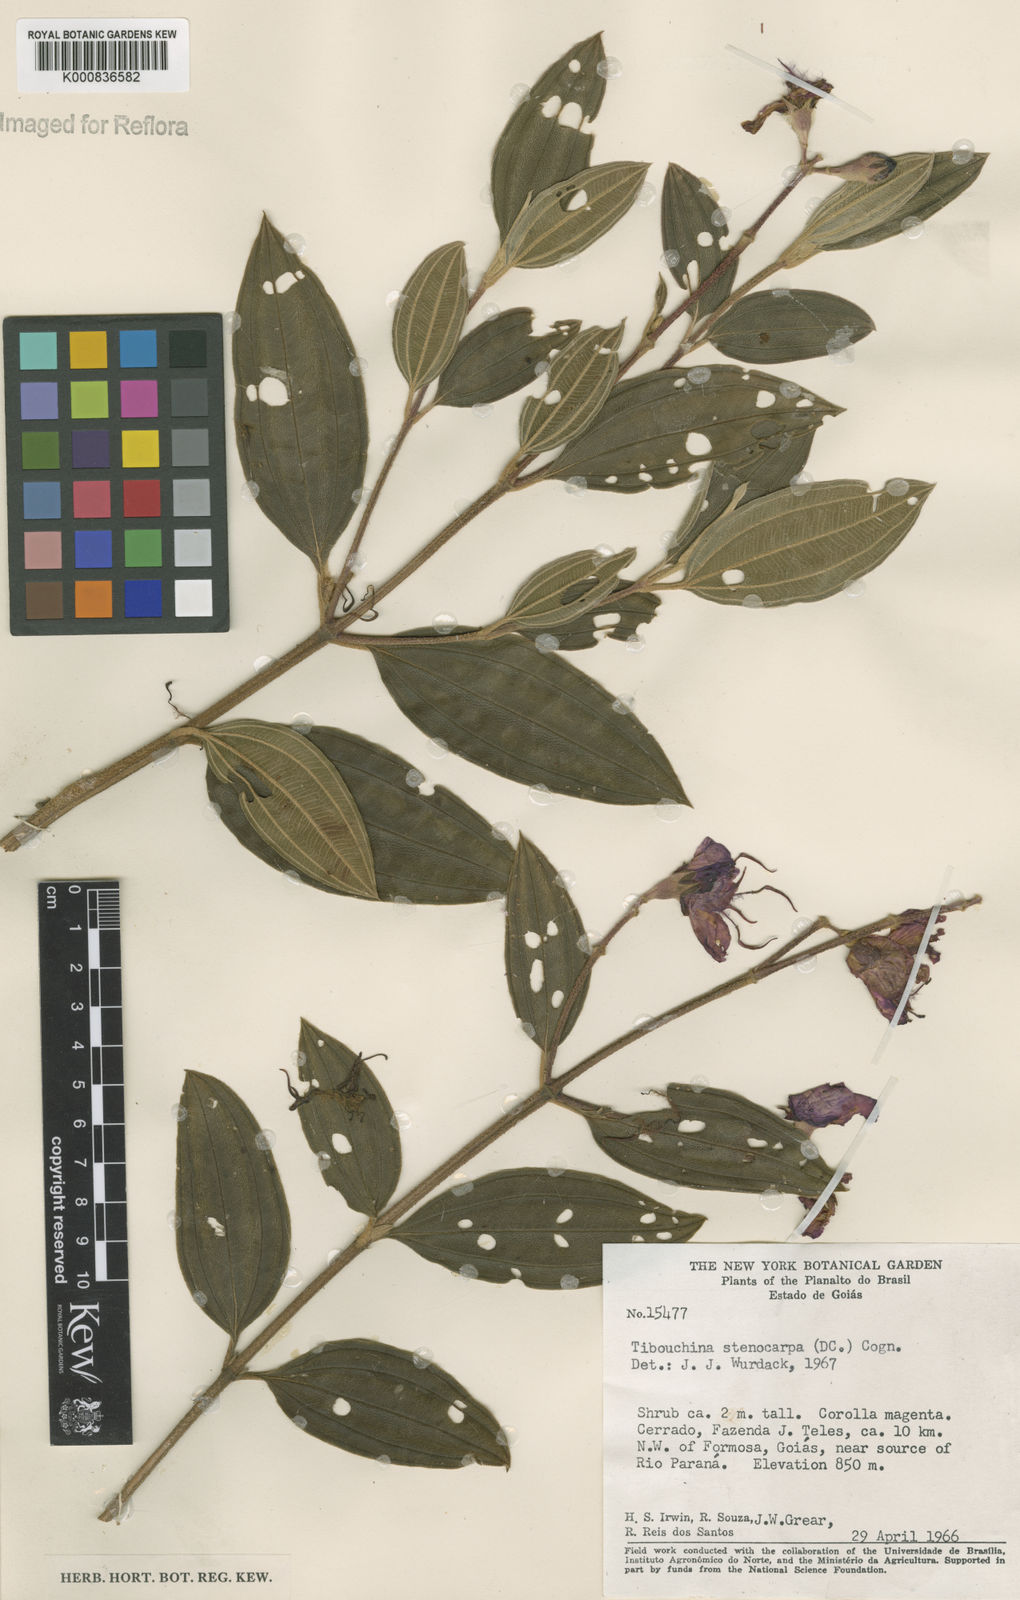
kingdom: Plantae
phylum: Tracheophyta
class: Magnoliopsida
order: Myrtales
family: Melastomataceae
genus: Pleroma
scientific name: Pleroma stenocarpum
